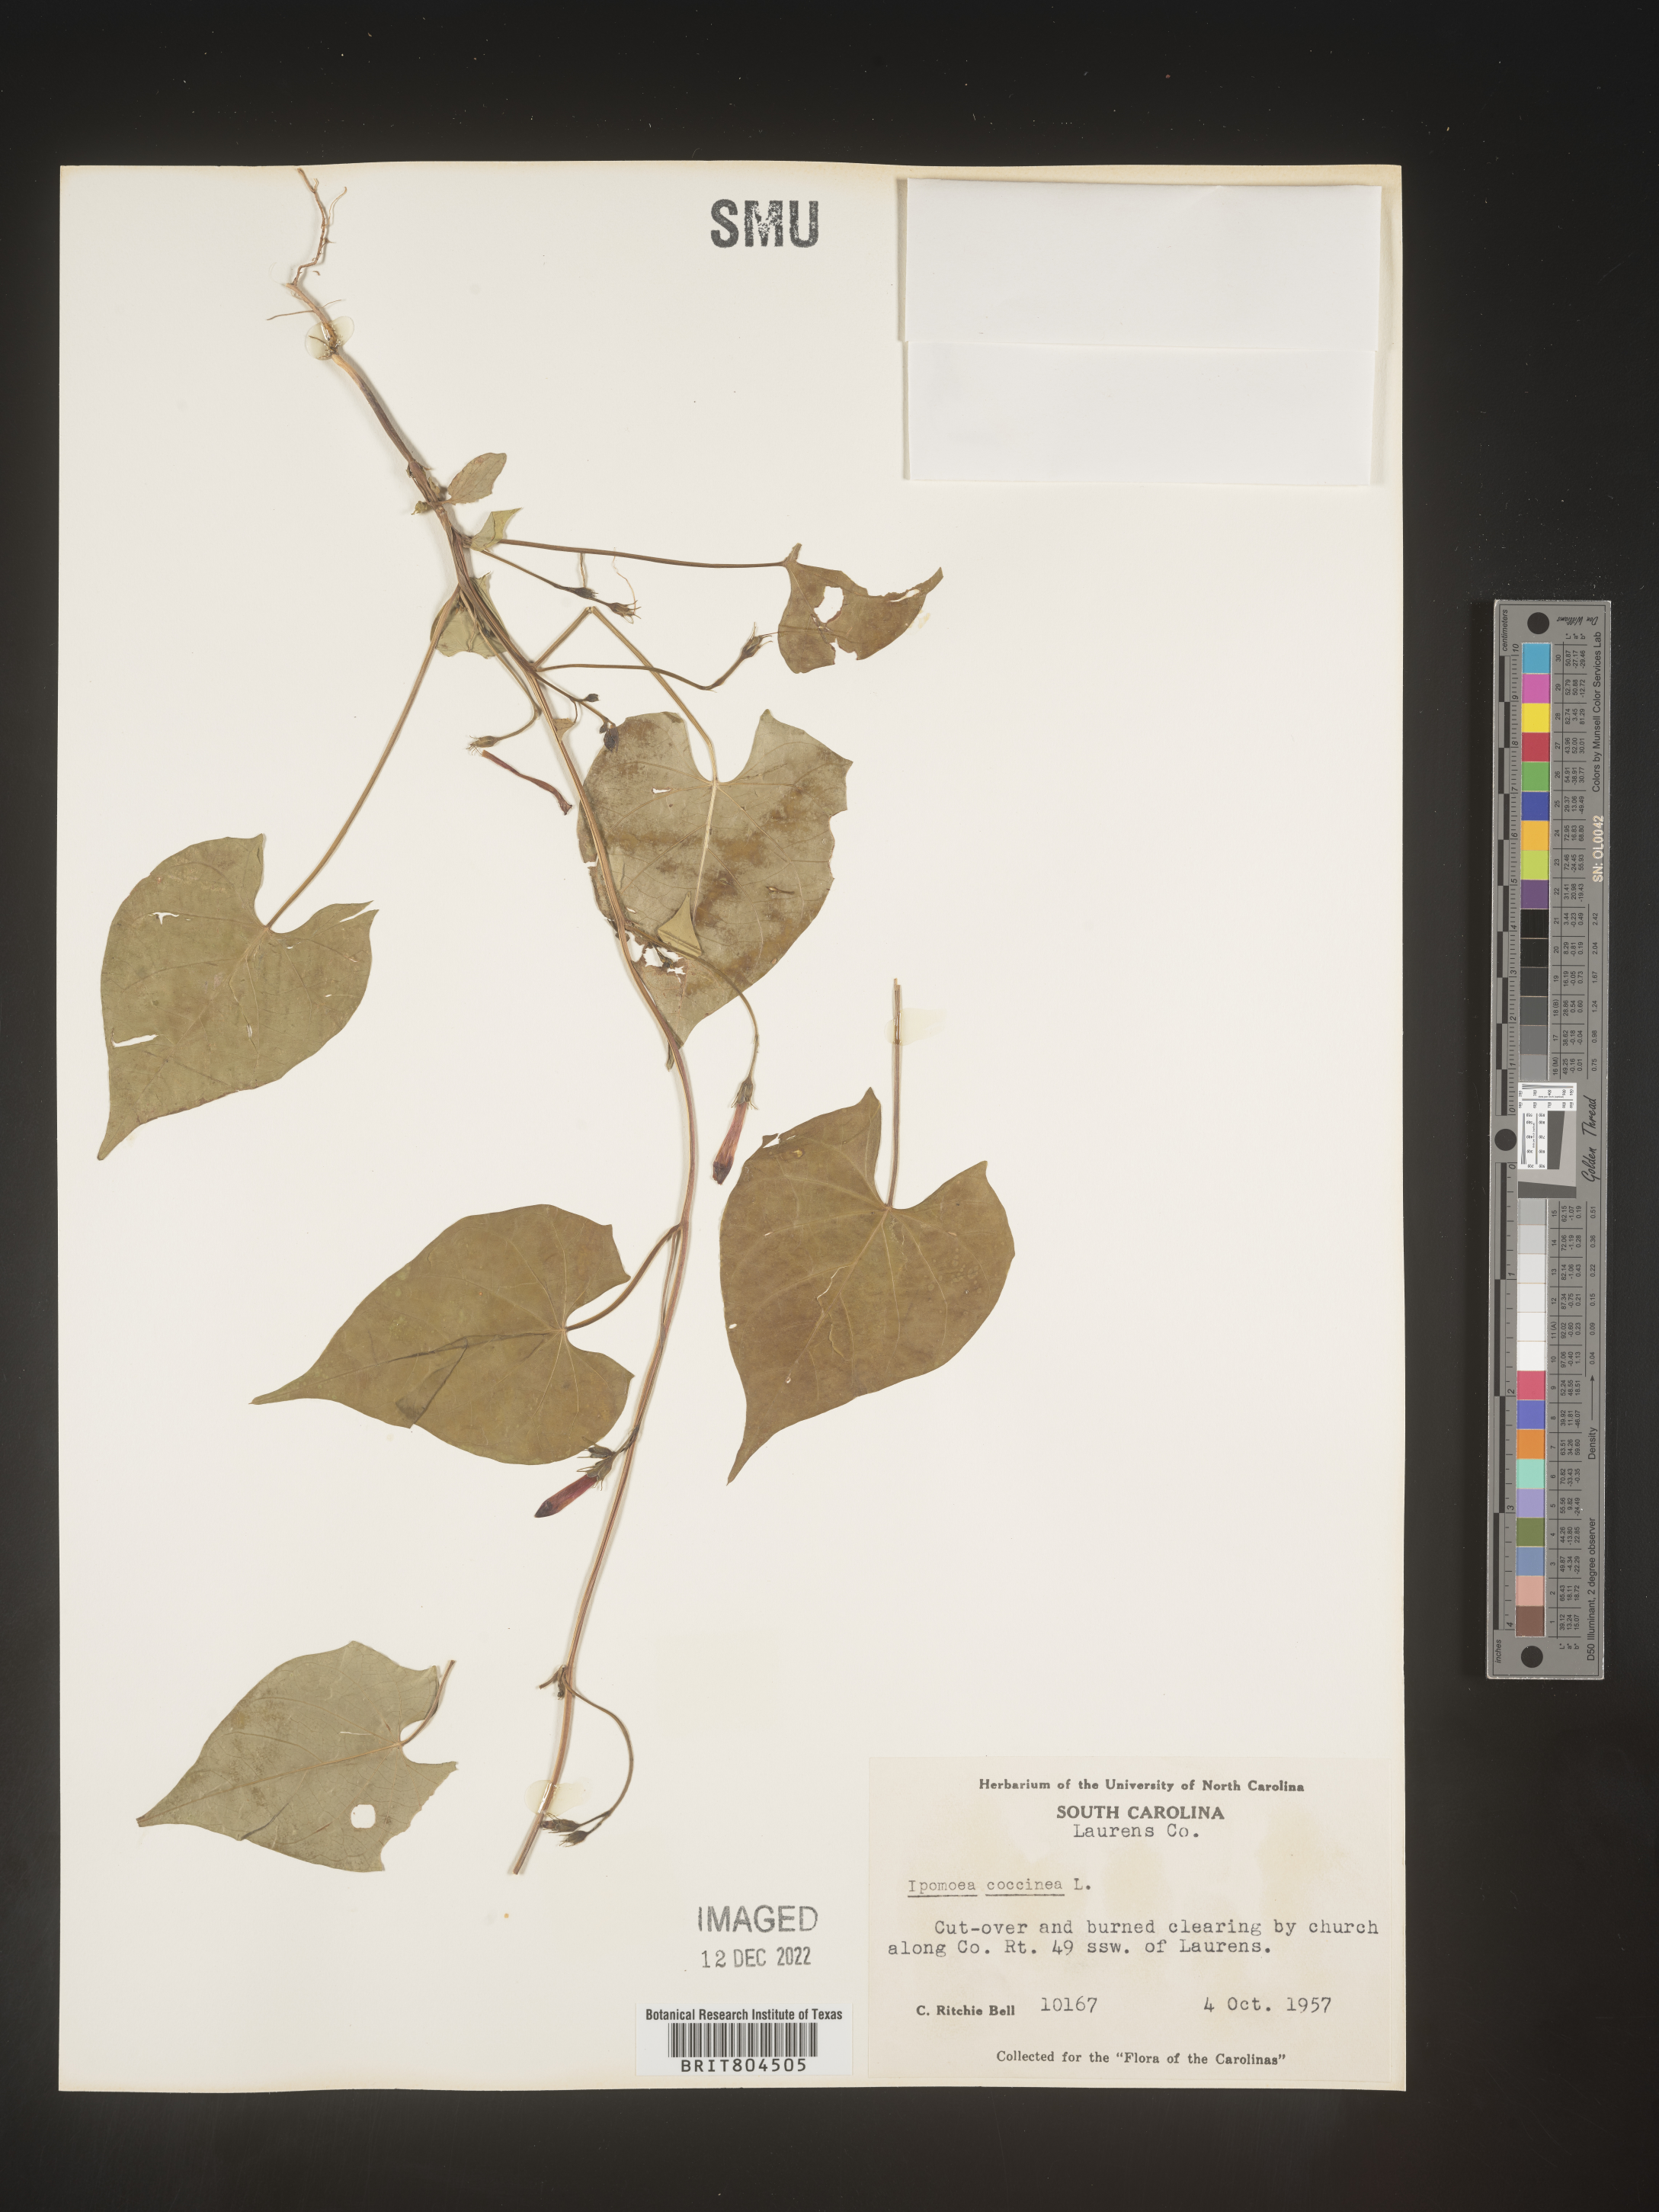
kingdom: Plantae
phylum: Tracheophyta
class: Magnoliopsida
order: Solanales
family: Convolvulaceae
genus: Ipomoea
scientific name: Ipomoea coccinea
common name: Red morning-glory
